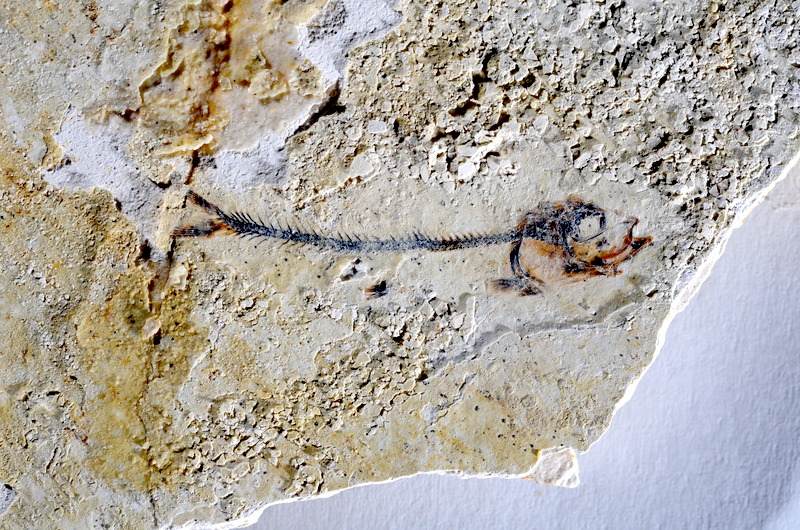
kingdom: Animalia
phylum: Chordata
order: Salmoniformes
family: Orthogonikleithridae
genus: Orthogonikleithrus
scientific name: Orthogonikleithrus hoelli
